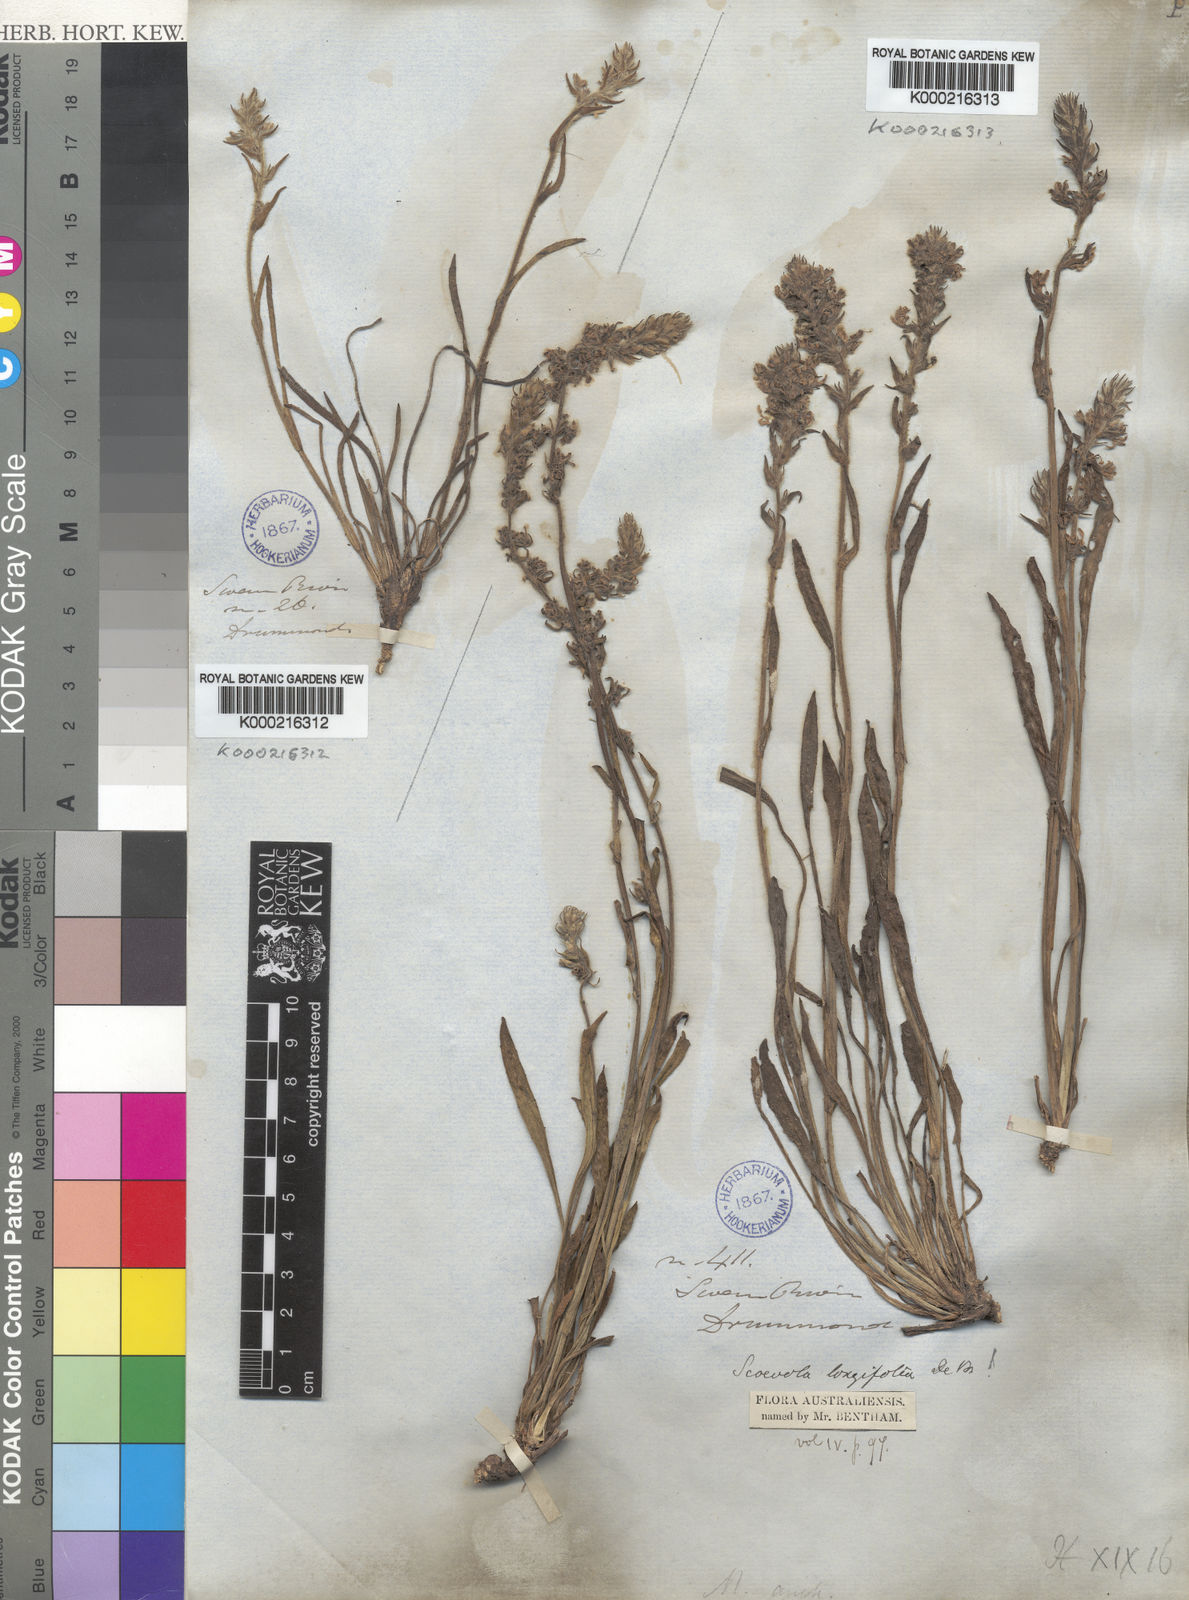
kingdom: Plantae
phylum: Tracheophyta
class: Magnoliopsida
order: Asterales
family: Goodeniaceae
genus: Scaevola
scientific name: Scaevola lanceolata
